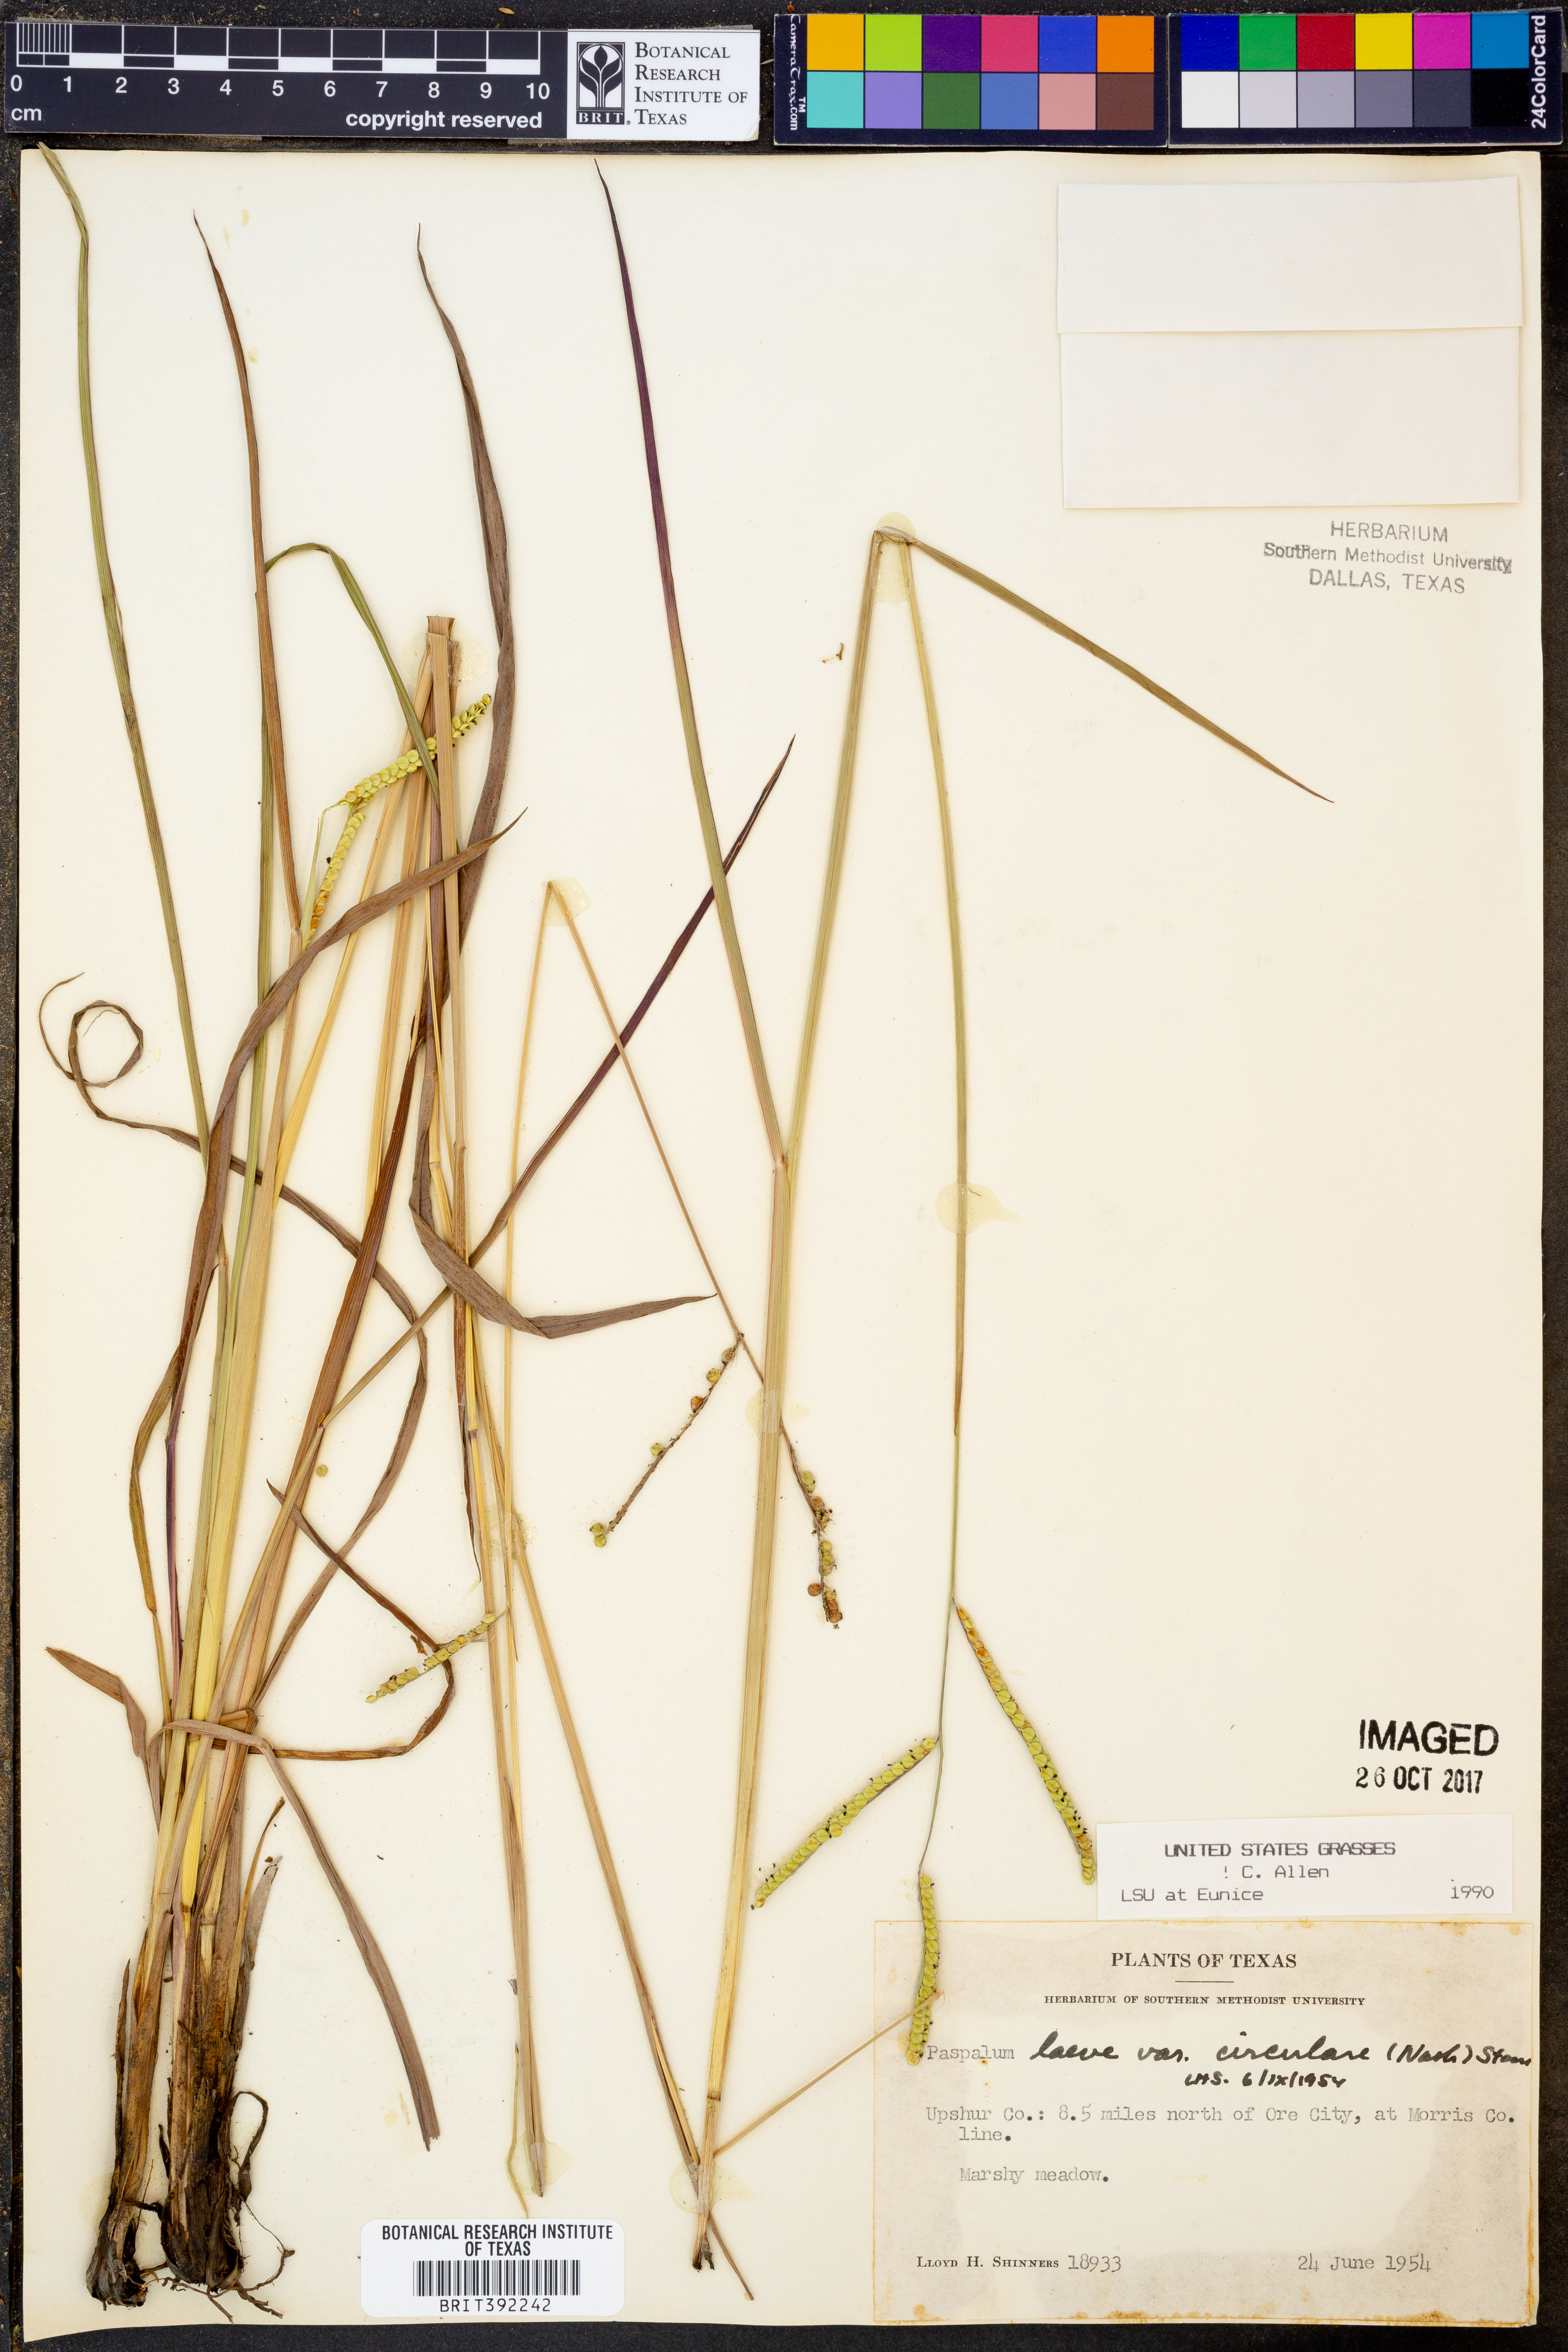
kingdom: Plantae
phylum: Tracheophyta
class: Liliopsida
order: Poales
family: Poaceae
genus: Paspalum
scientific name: Paspalum laeve
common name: Field paspalum
